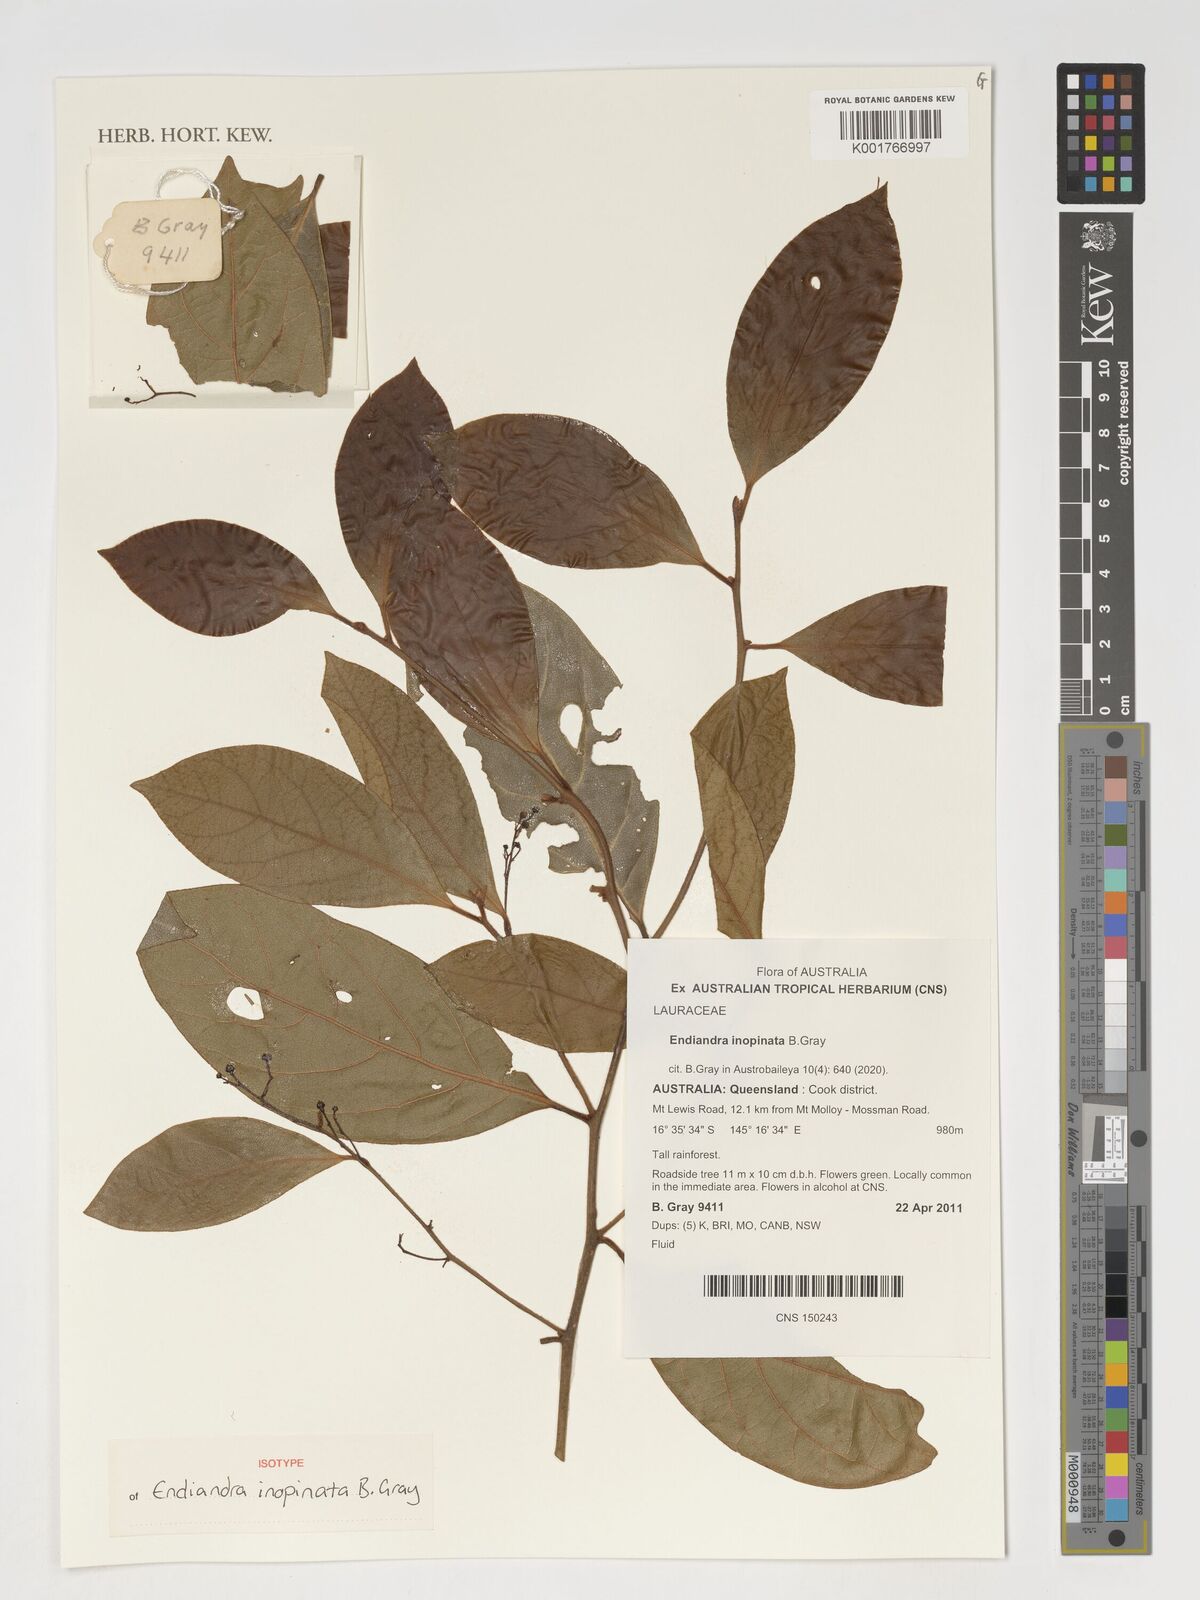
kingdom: Plantae
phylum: Tracheophyta
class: Magnoliopsida
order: Laurales
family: Lauraceae
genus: Endiandra
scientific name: Endiandra
